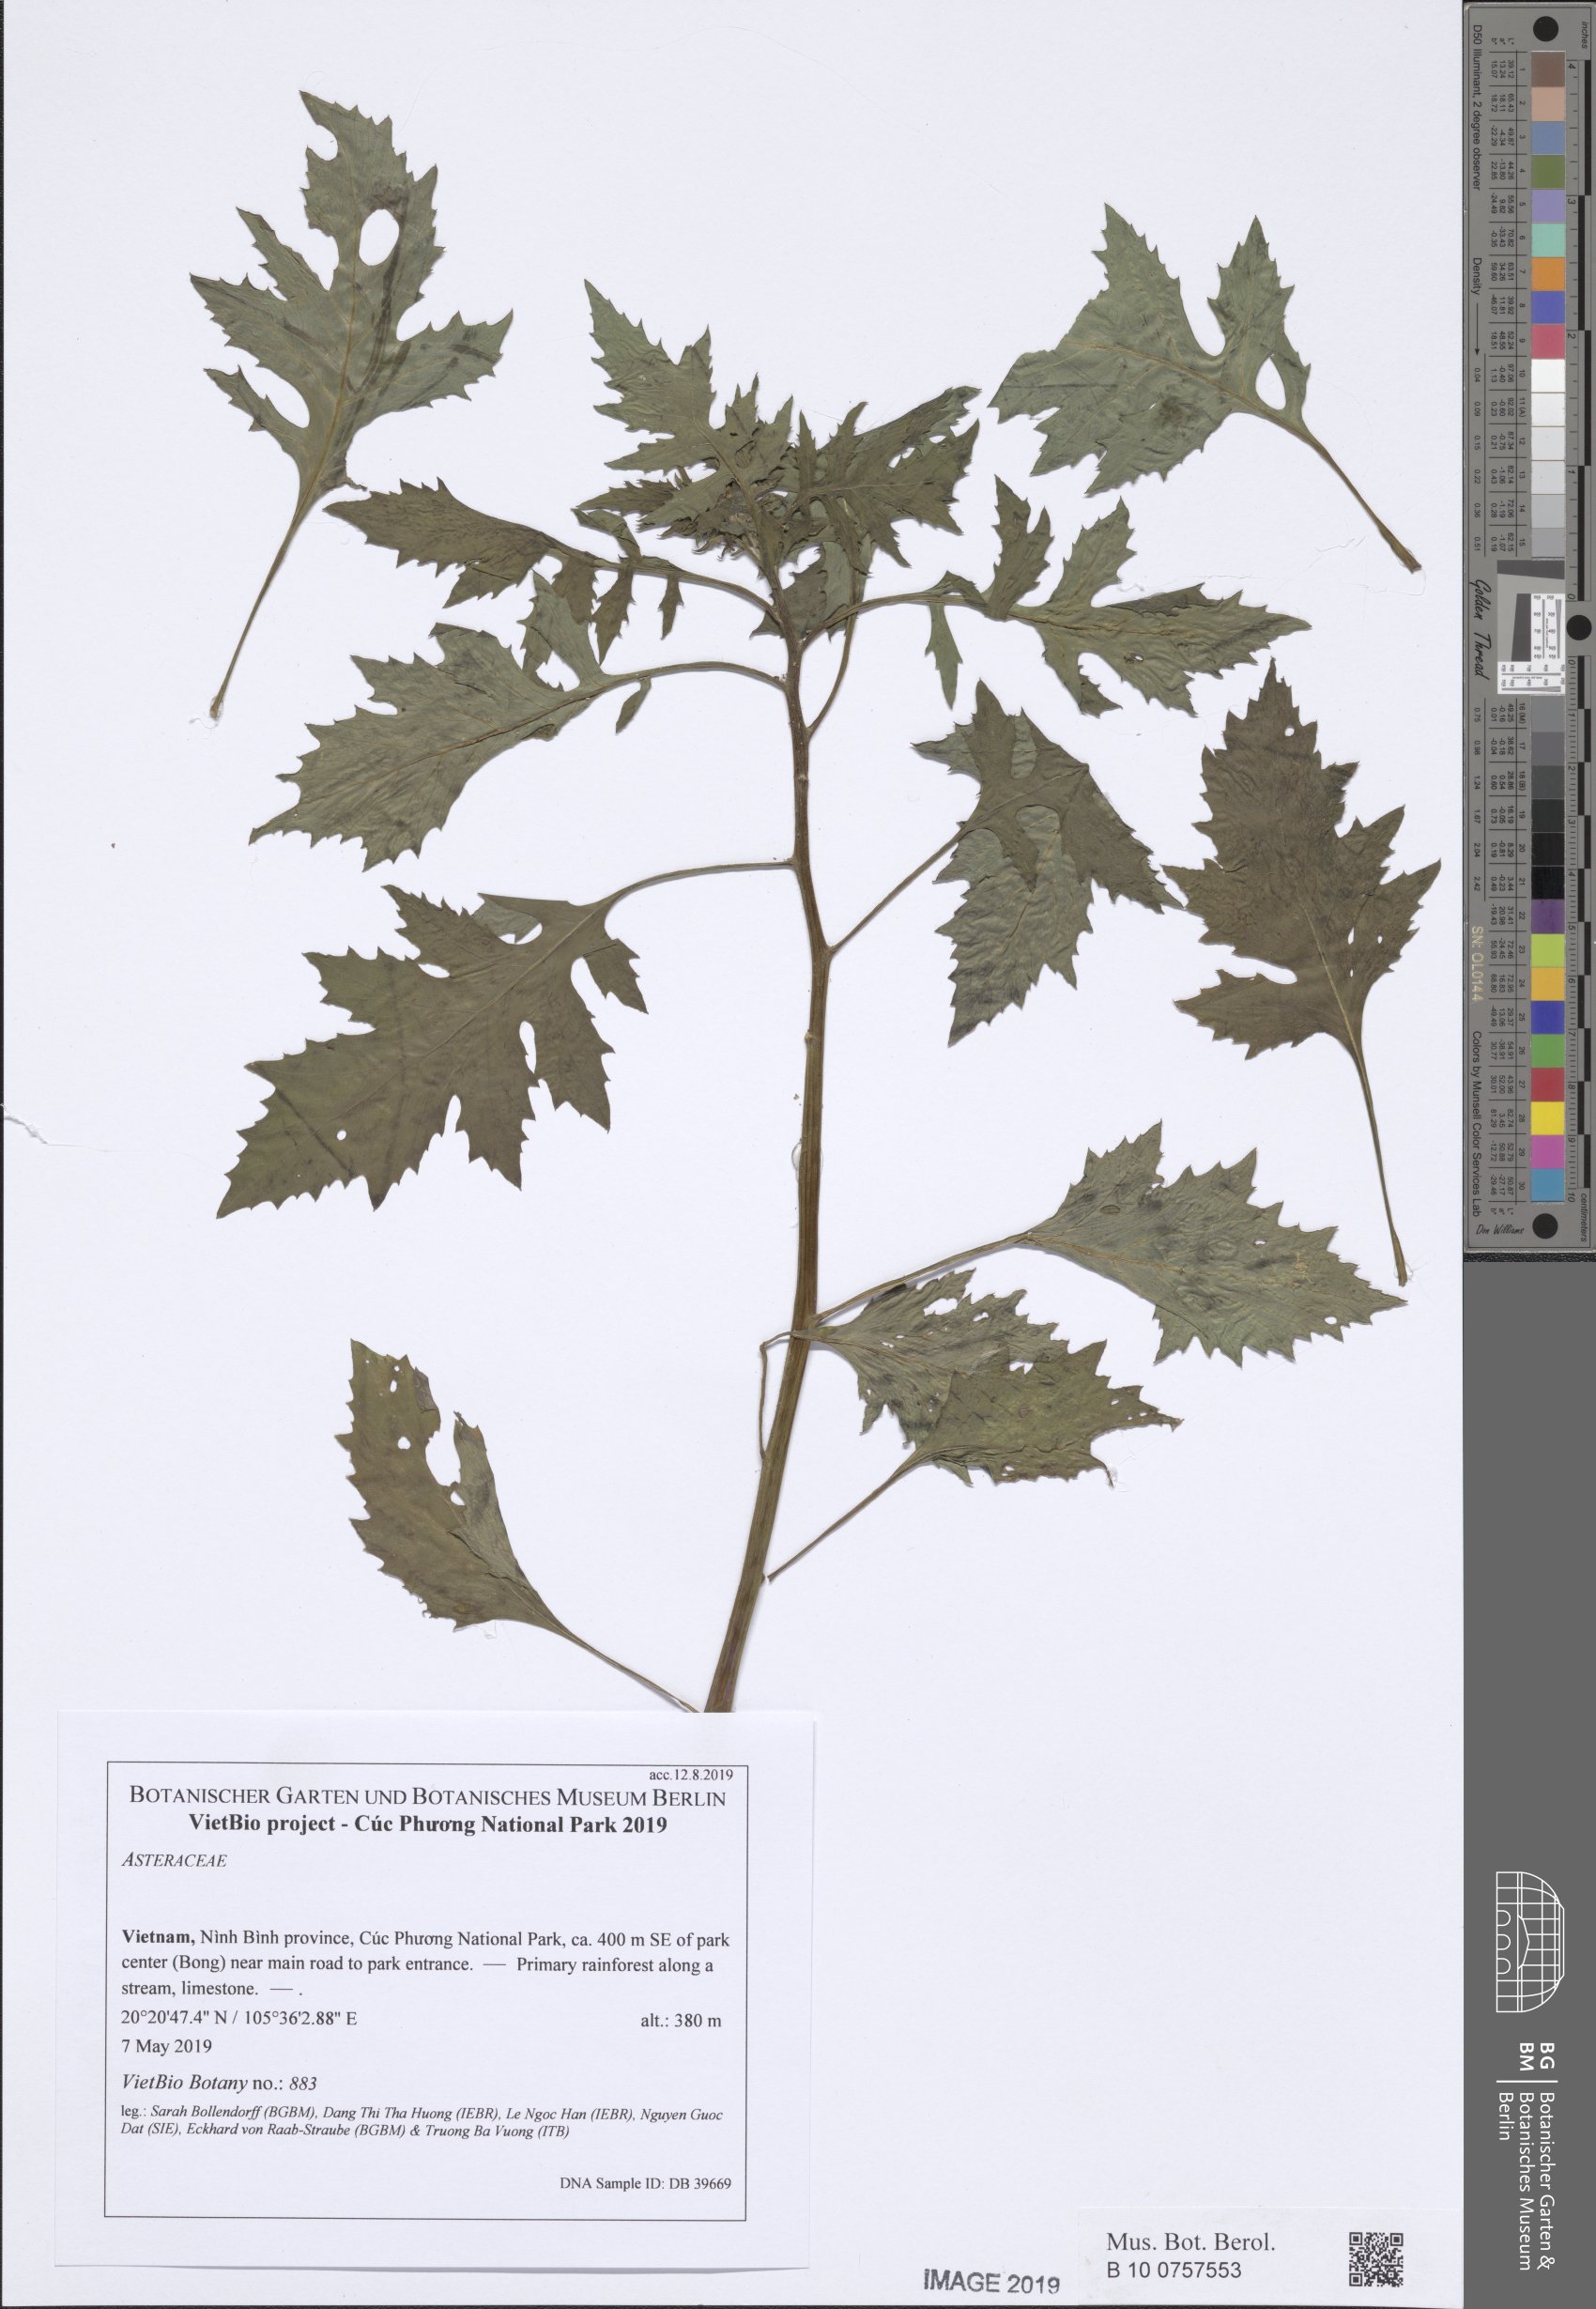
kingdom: Plantae
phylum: Tracheophyta
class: Magnoliopsida
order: Asterales
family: Asteraceae
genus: Blumea
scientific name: Blumea
